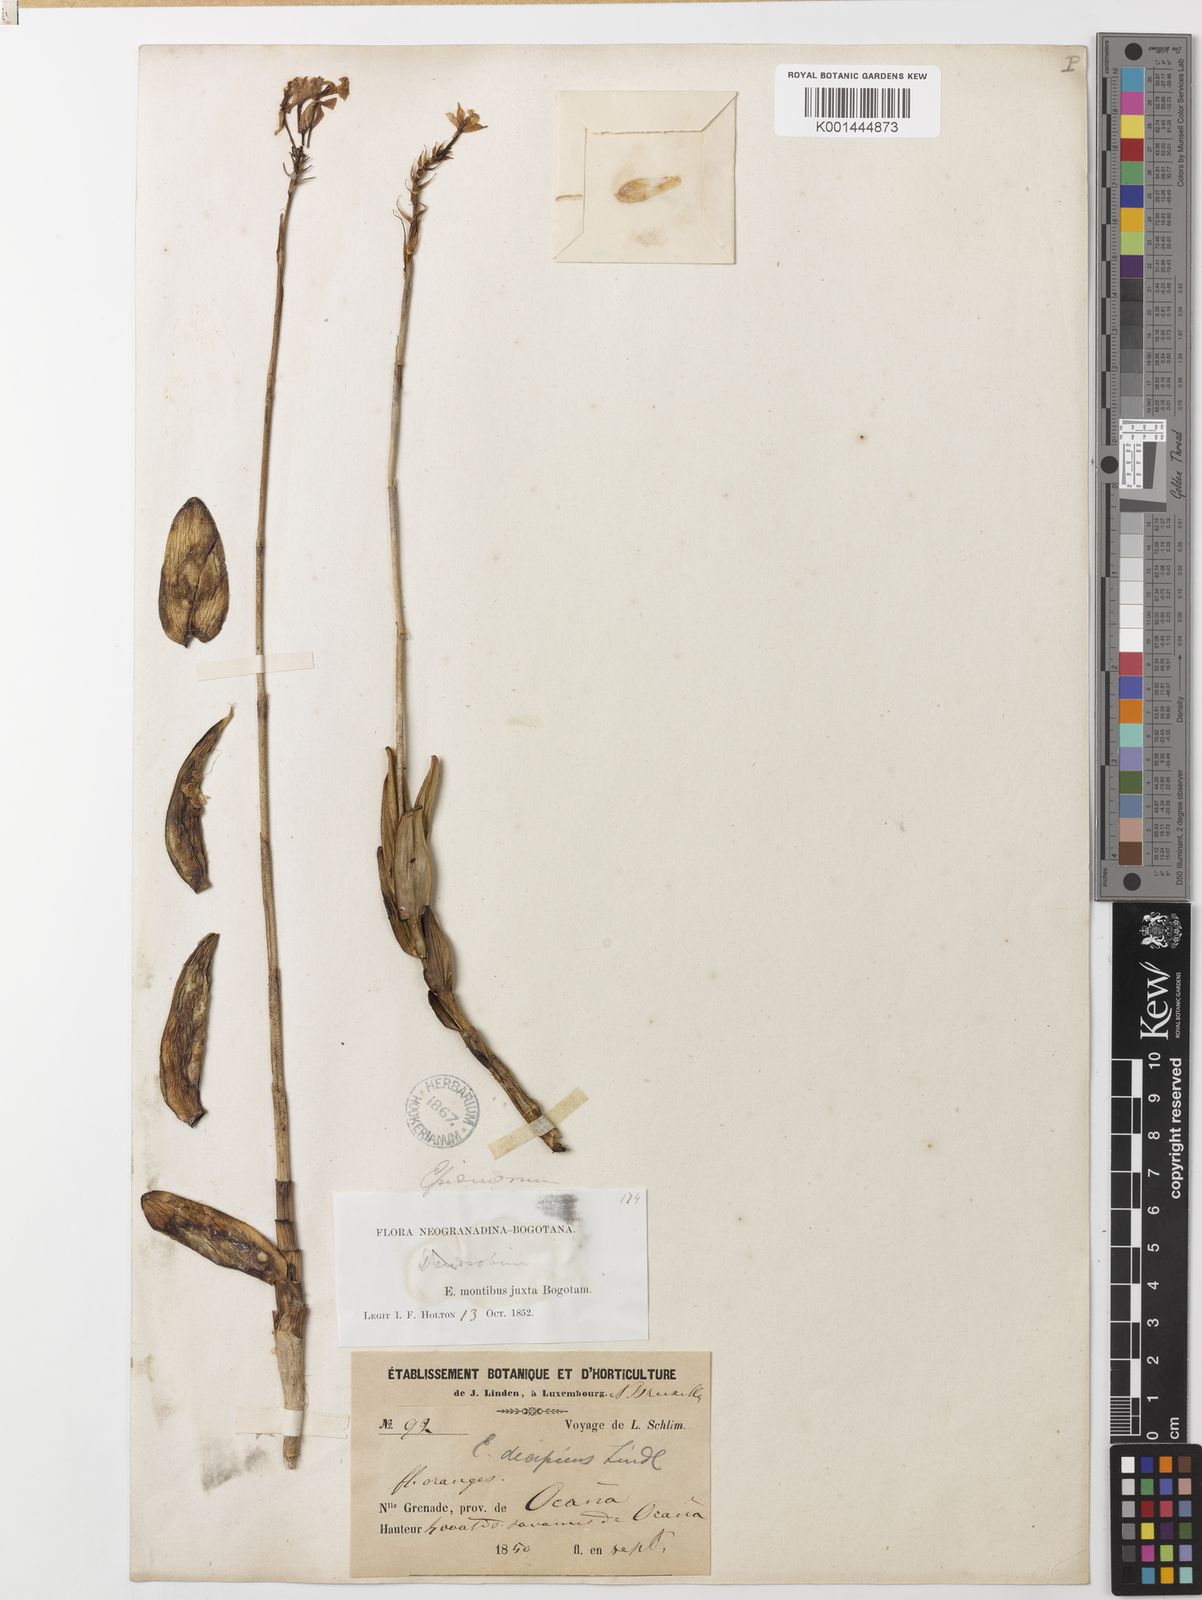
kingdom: Plantae
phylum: Tracheophyta
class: Liliopsida
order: Asparagales
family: Orchidaceae
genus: Epidendrum
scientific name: Epidendrum dendrobii
